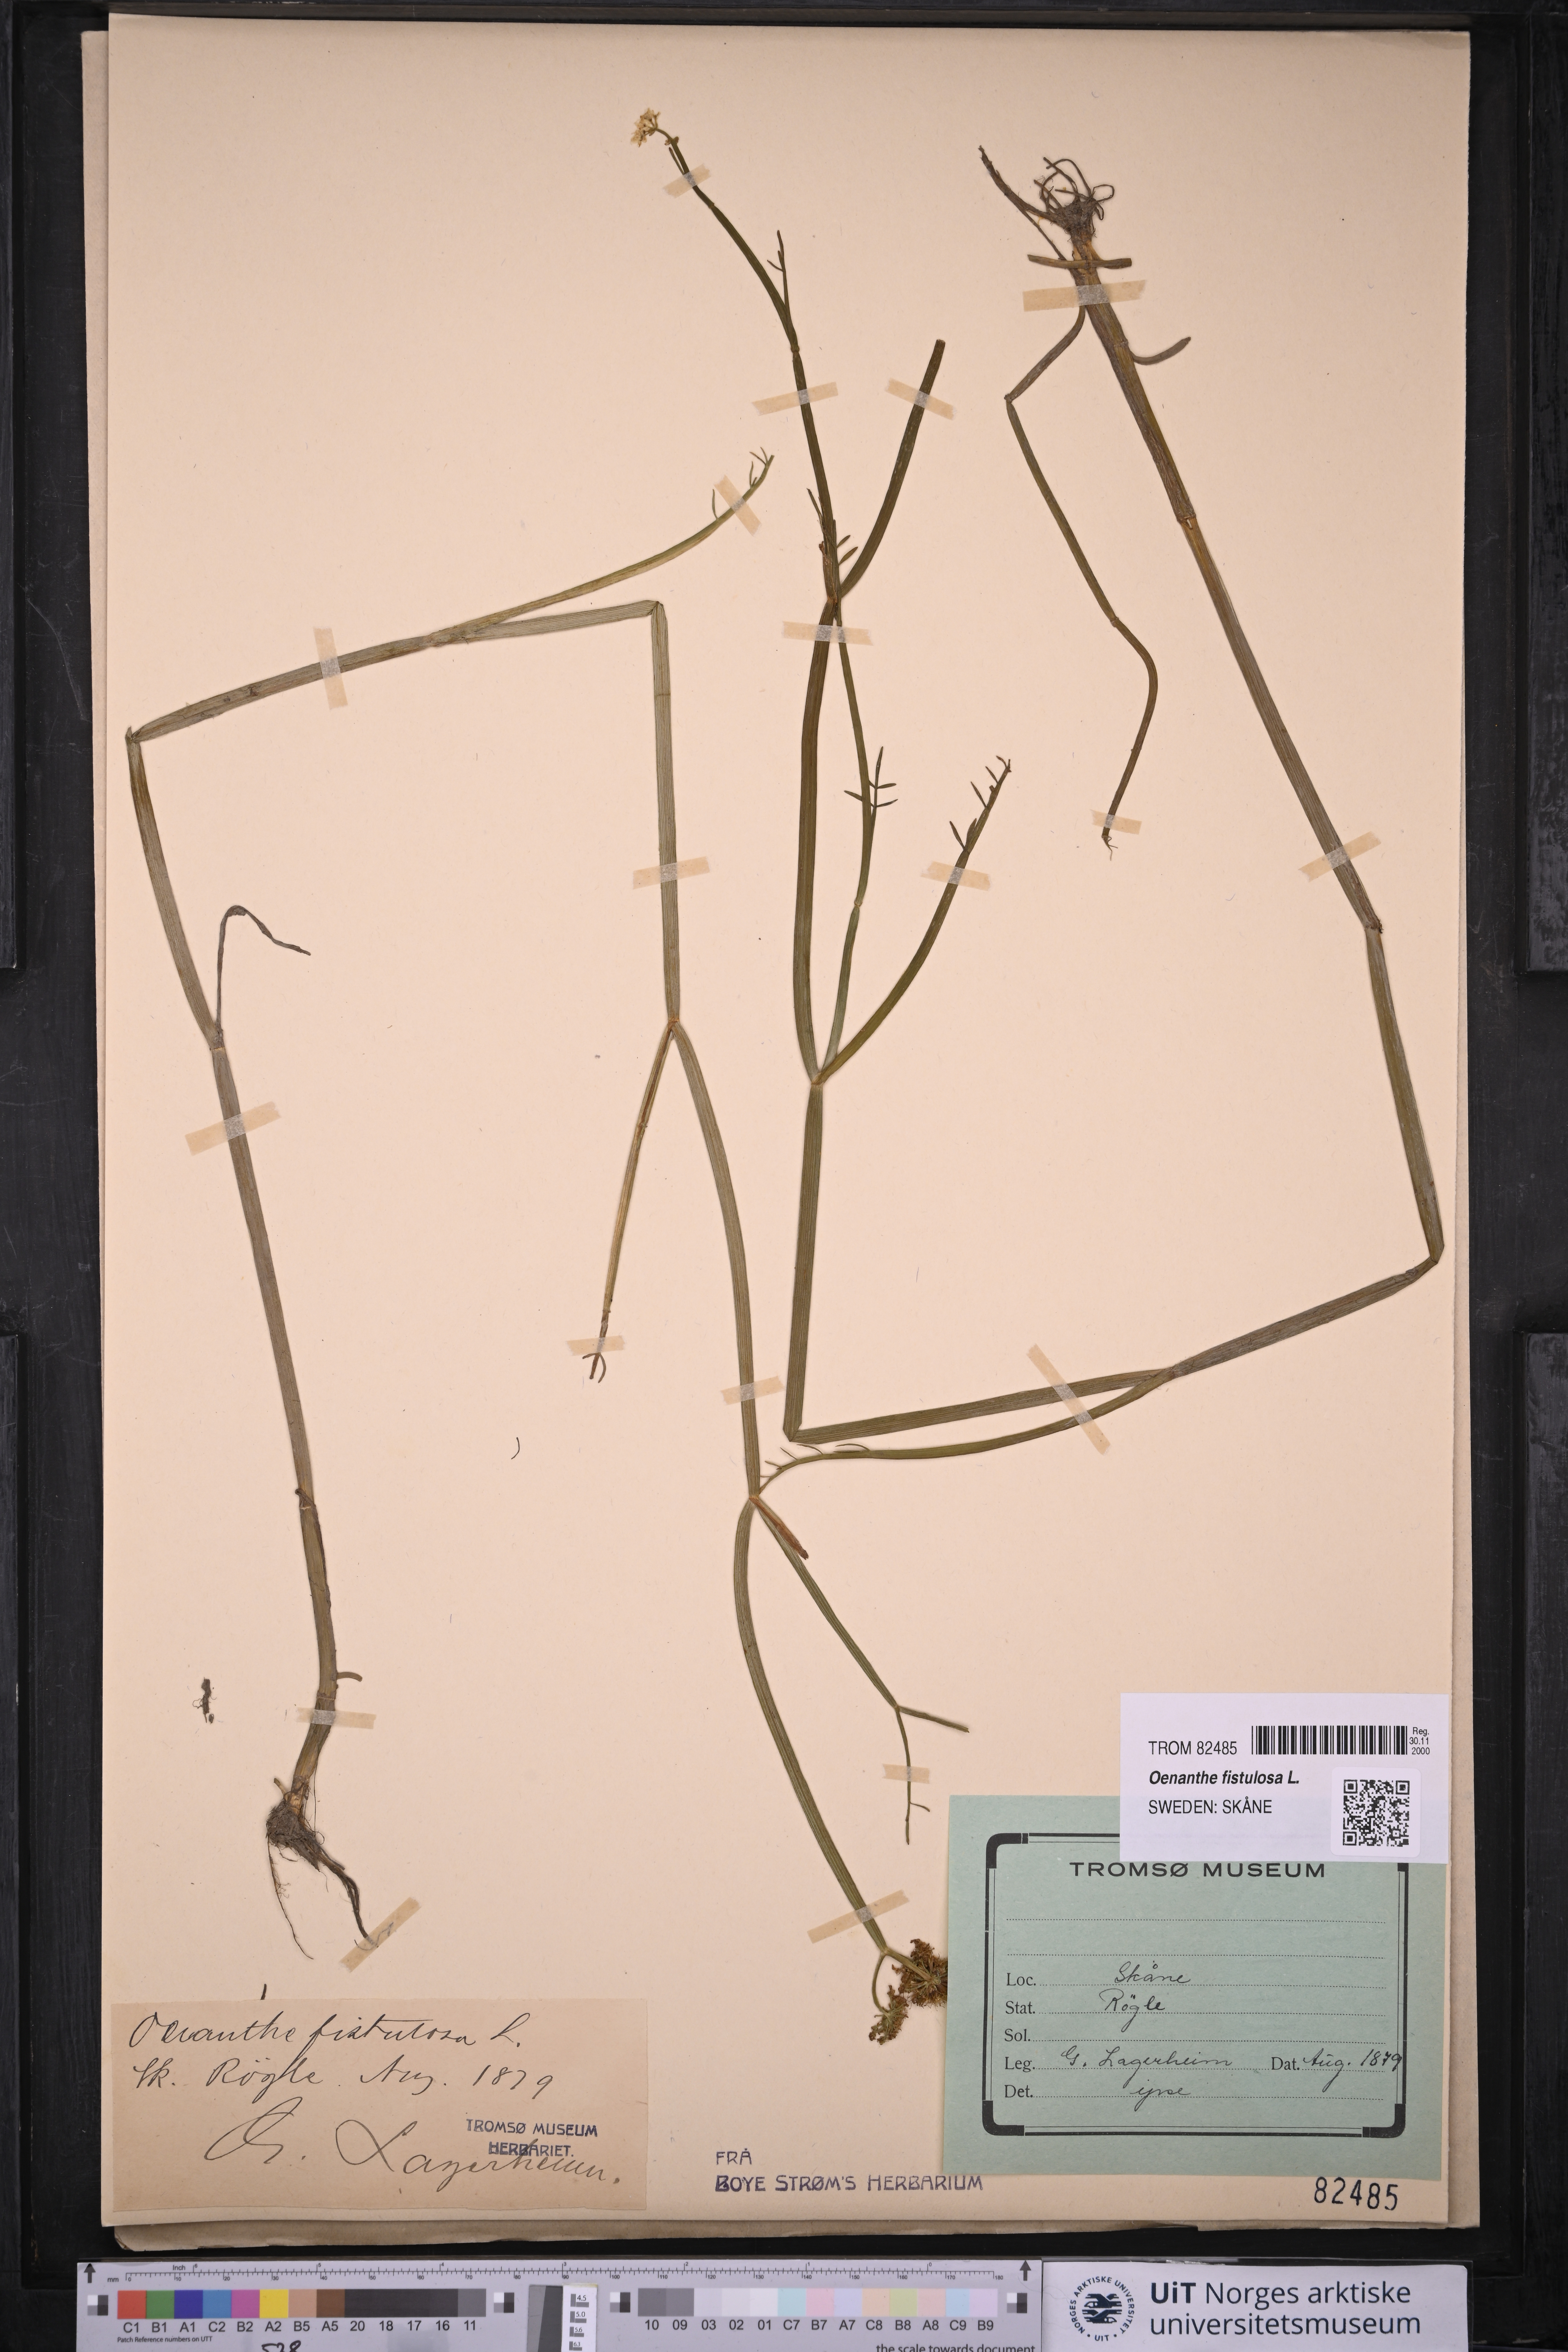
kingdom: Plantae
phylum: Tracheophyta
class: Magnoliopsida
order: Apiales
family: Apiaceae
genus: Oenanthe
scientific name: Oenanthe fistulosa
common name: Tubular water-dropwort
